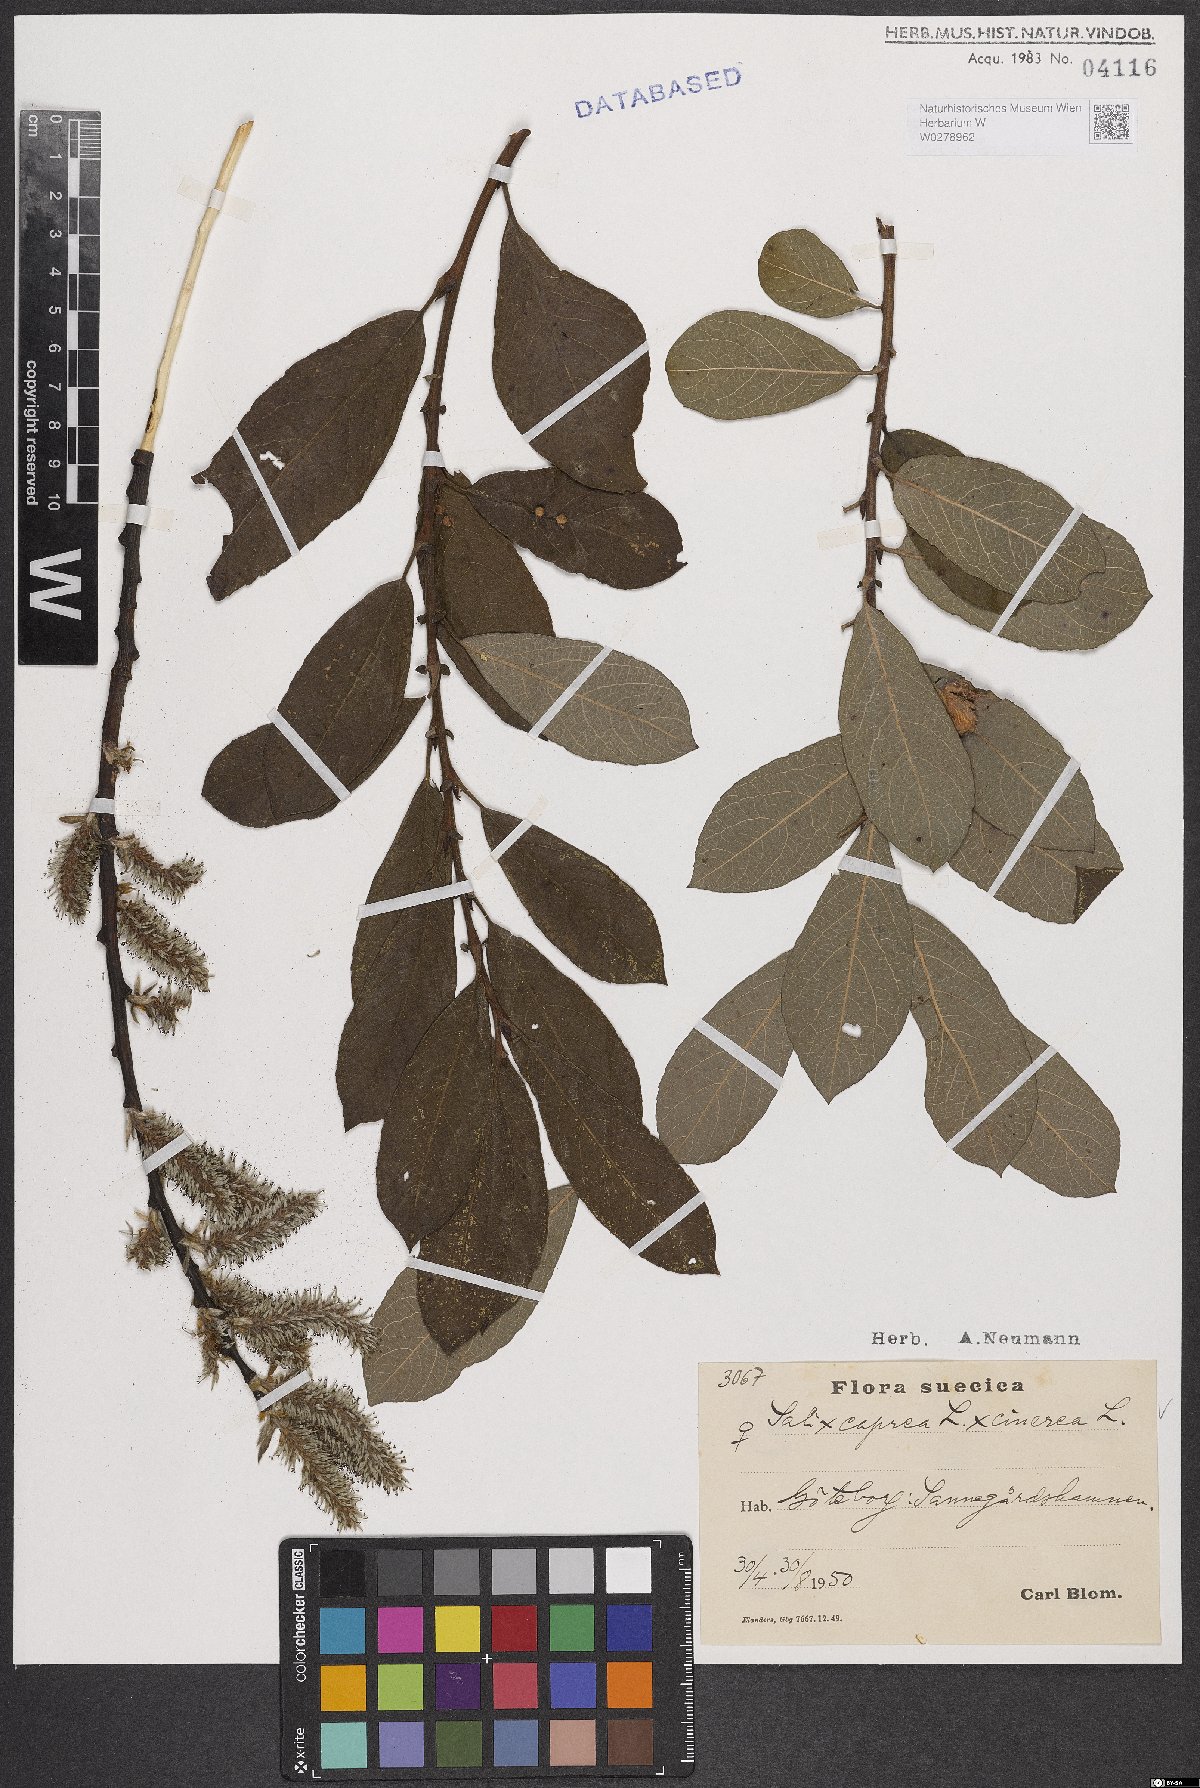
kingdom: Plantae
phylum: Tracheophyta
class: Magnoliopsida
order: Malpighiales
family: Salicaceae
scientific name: Salicaceae
